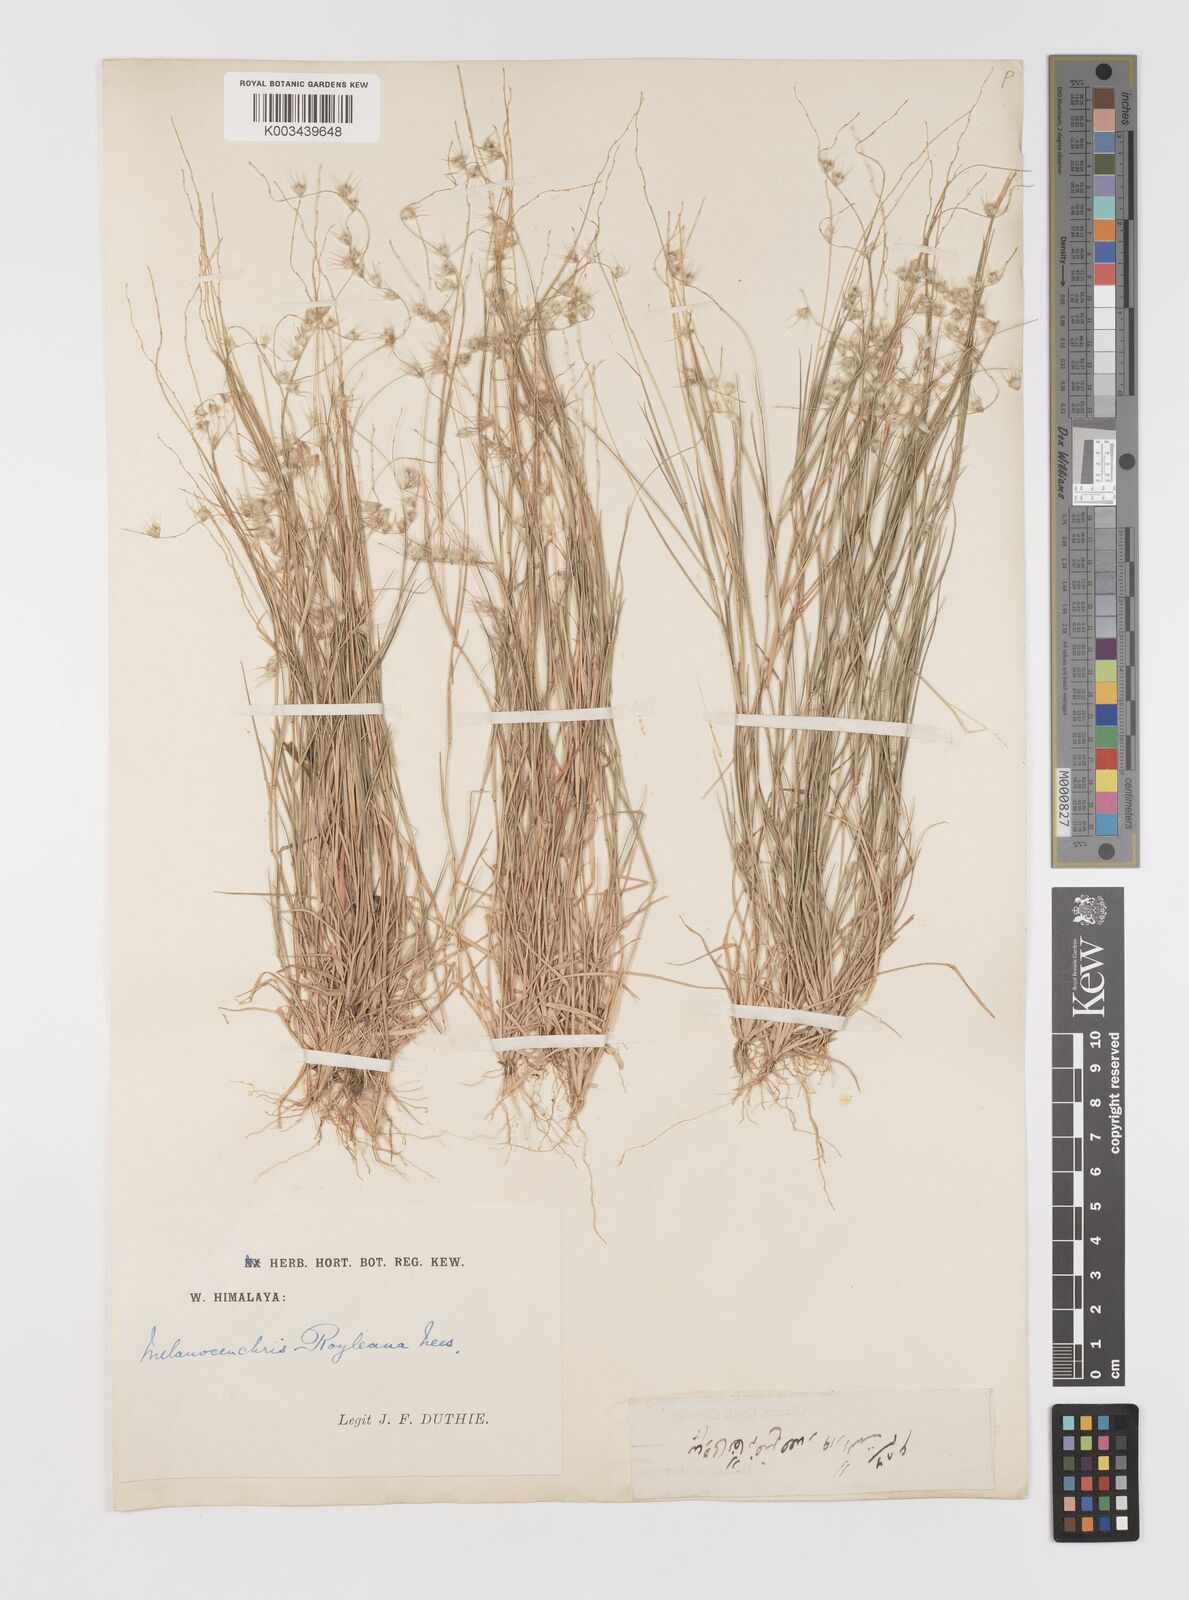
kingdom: Plantae
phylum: Tracheophyta
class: Liliopsida
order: Poales
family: Poaceae
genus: Melanocenchris
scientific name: Melanocenchris jacquemontii
